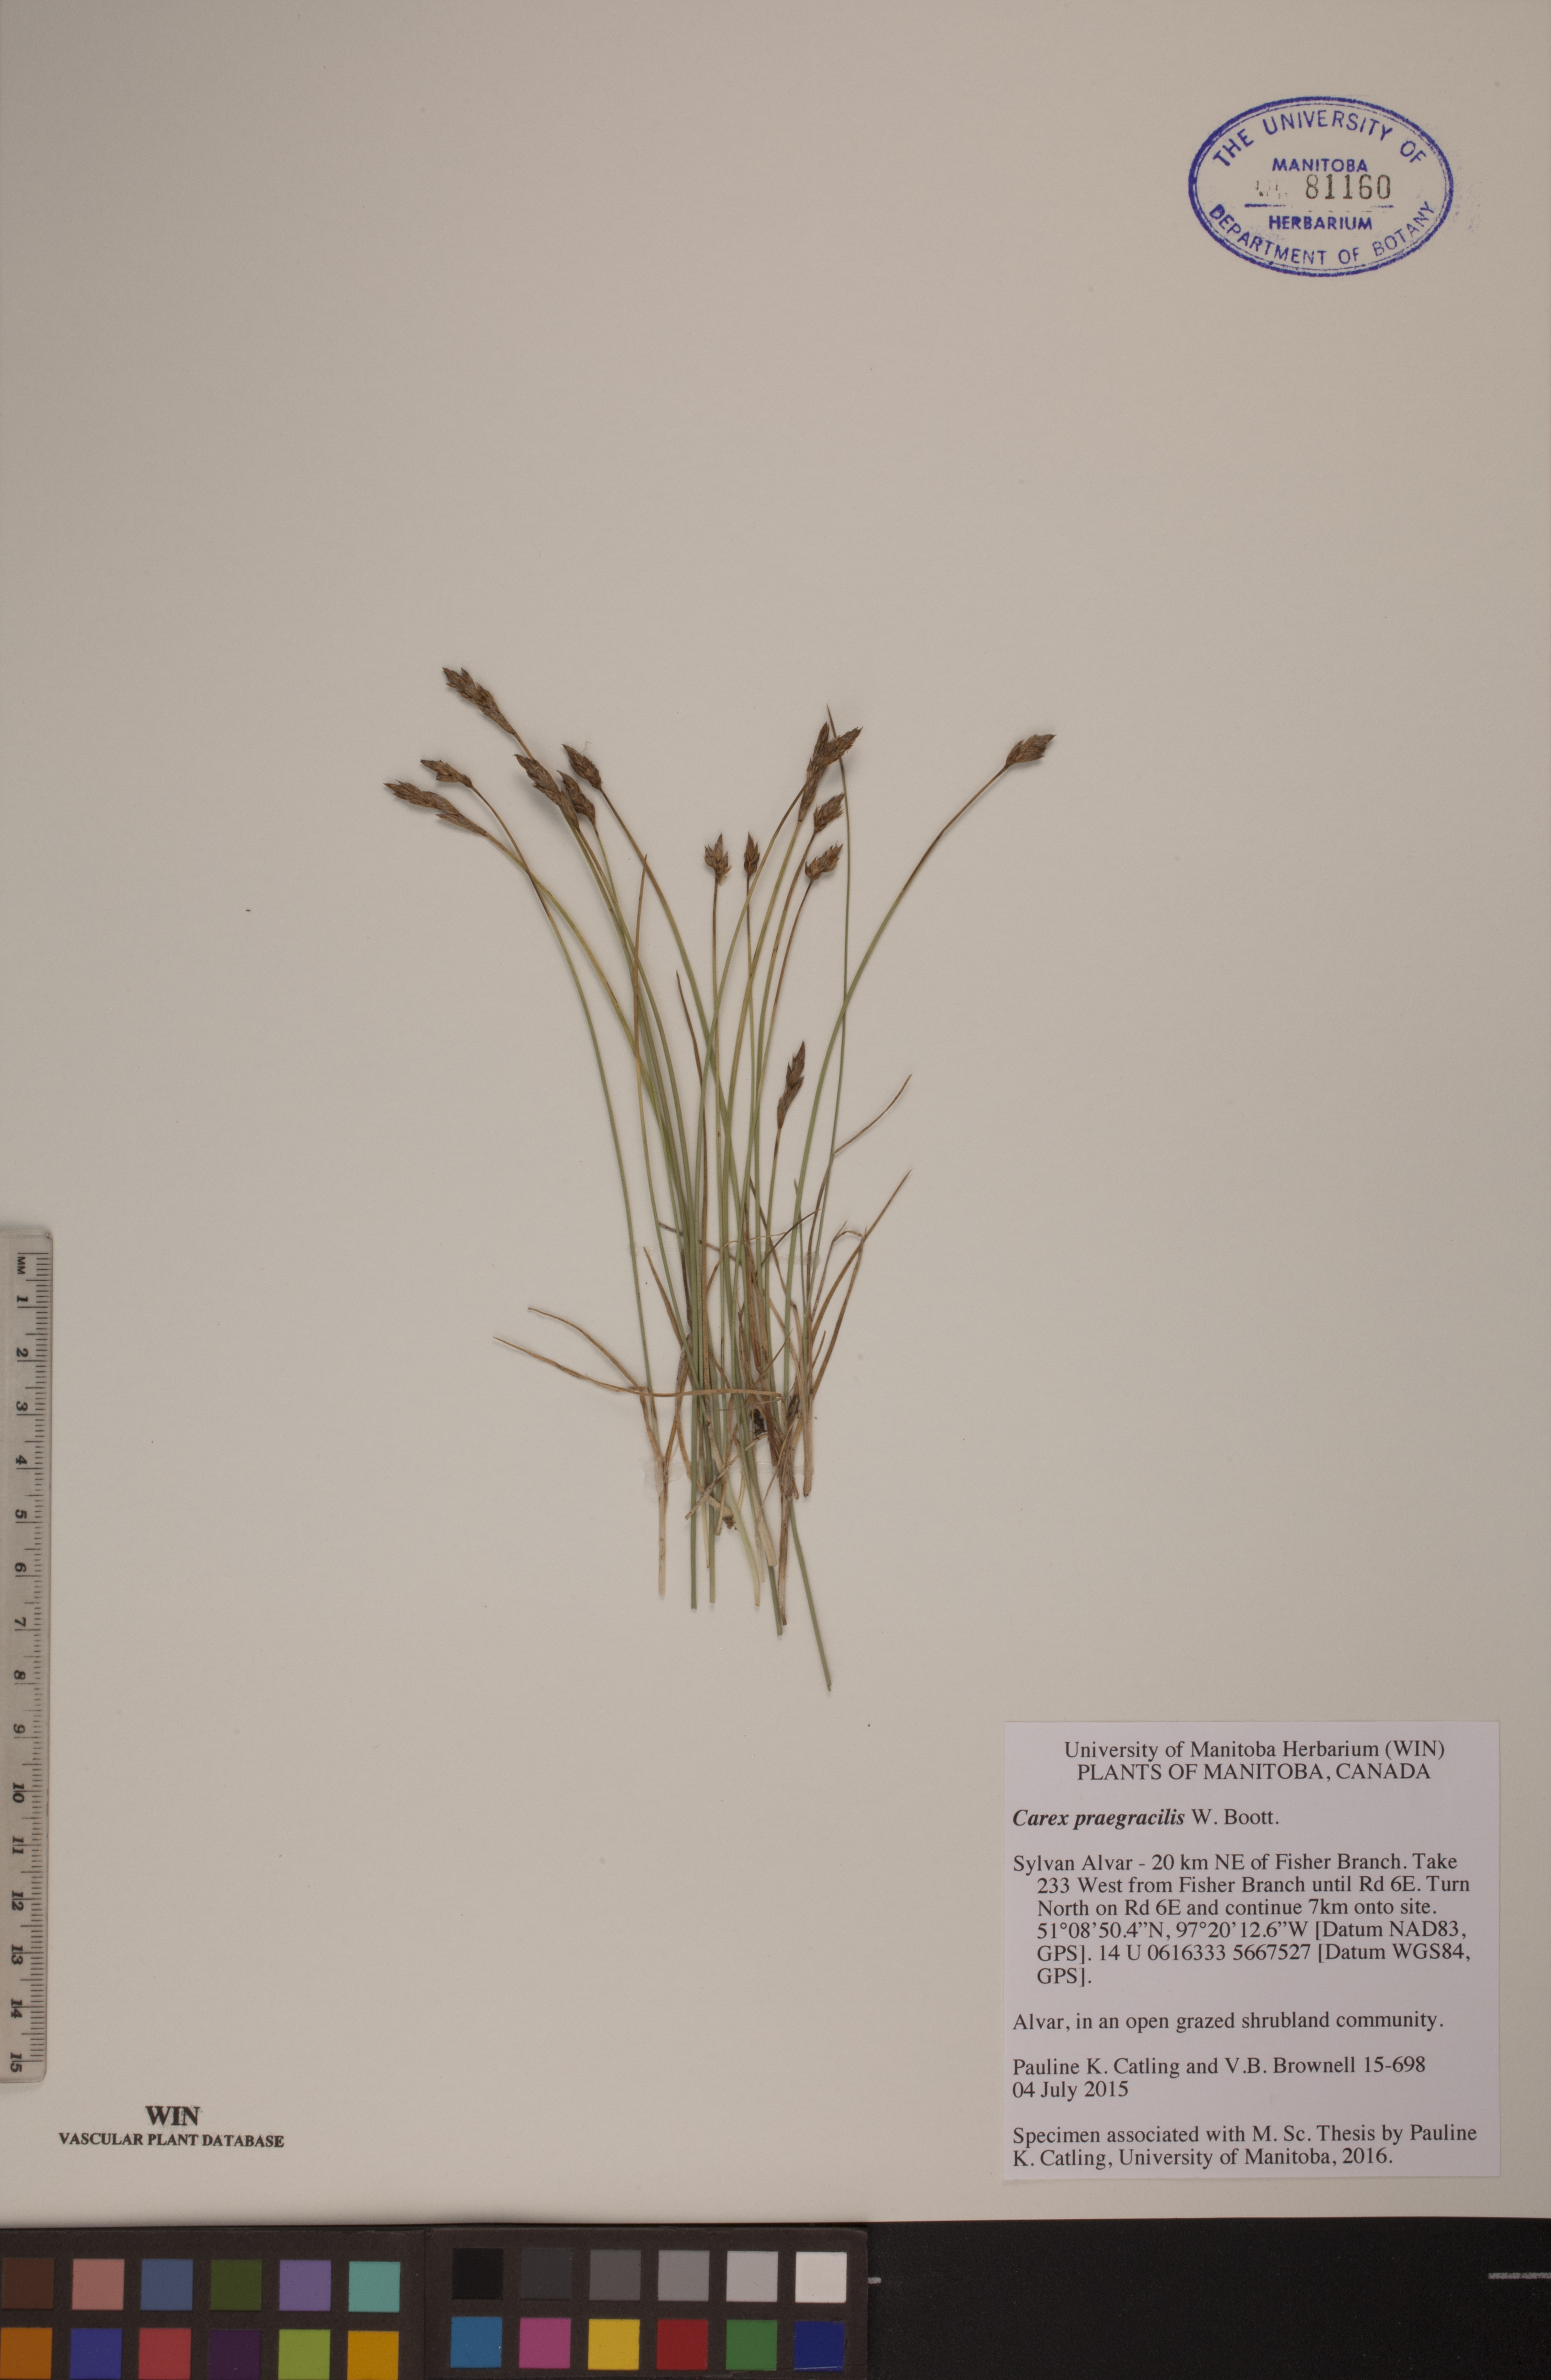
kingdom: Plantae
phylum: Tracheophyta
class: Liliopsida
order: Poales
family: Cyperaceae
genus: Carex
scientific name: Carex praegracilis
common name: Black creeper sedge
